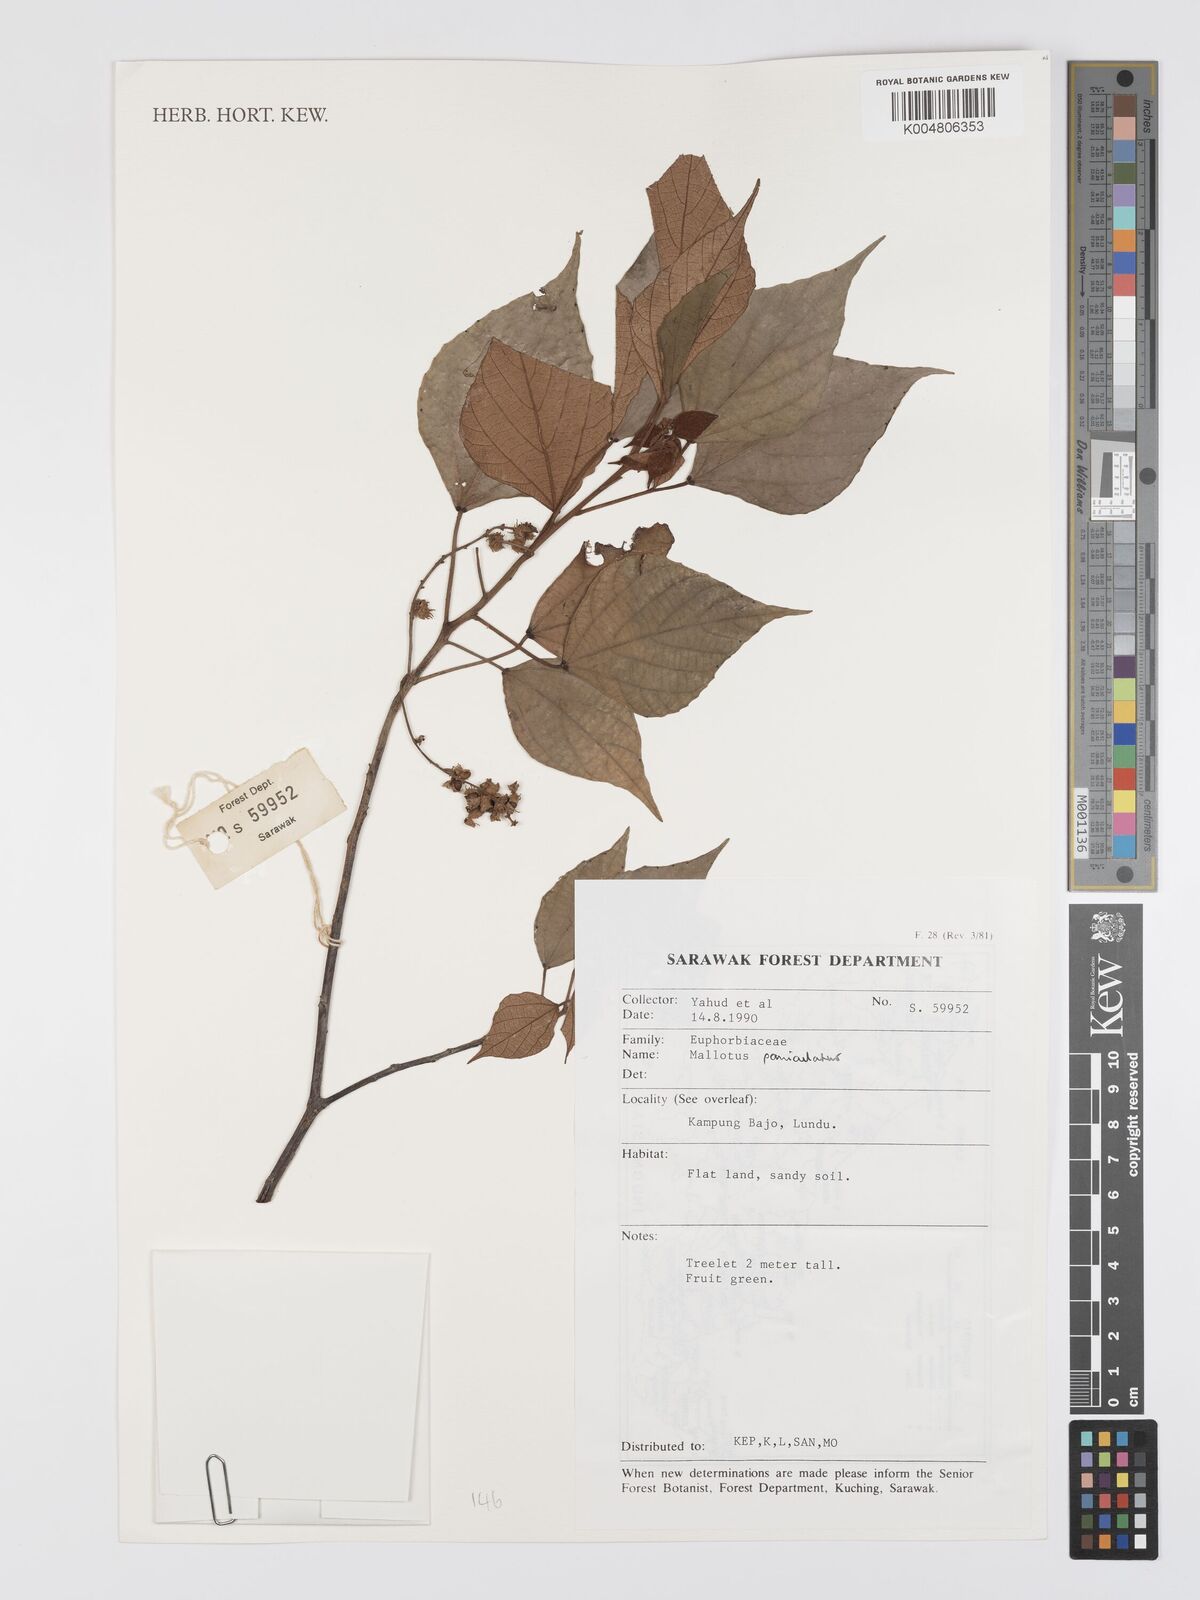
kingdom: Plantae
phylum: Tracheophyta
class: Magnoliopsida
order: Malpighiales
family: Euphorbiaceae
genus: Mallotus
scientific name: Mallotus paniculatus
